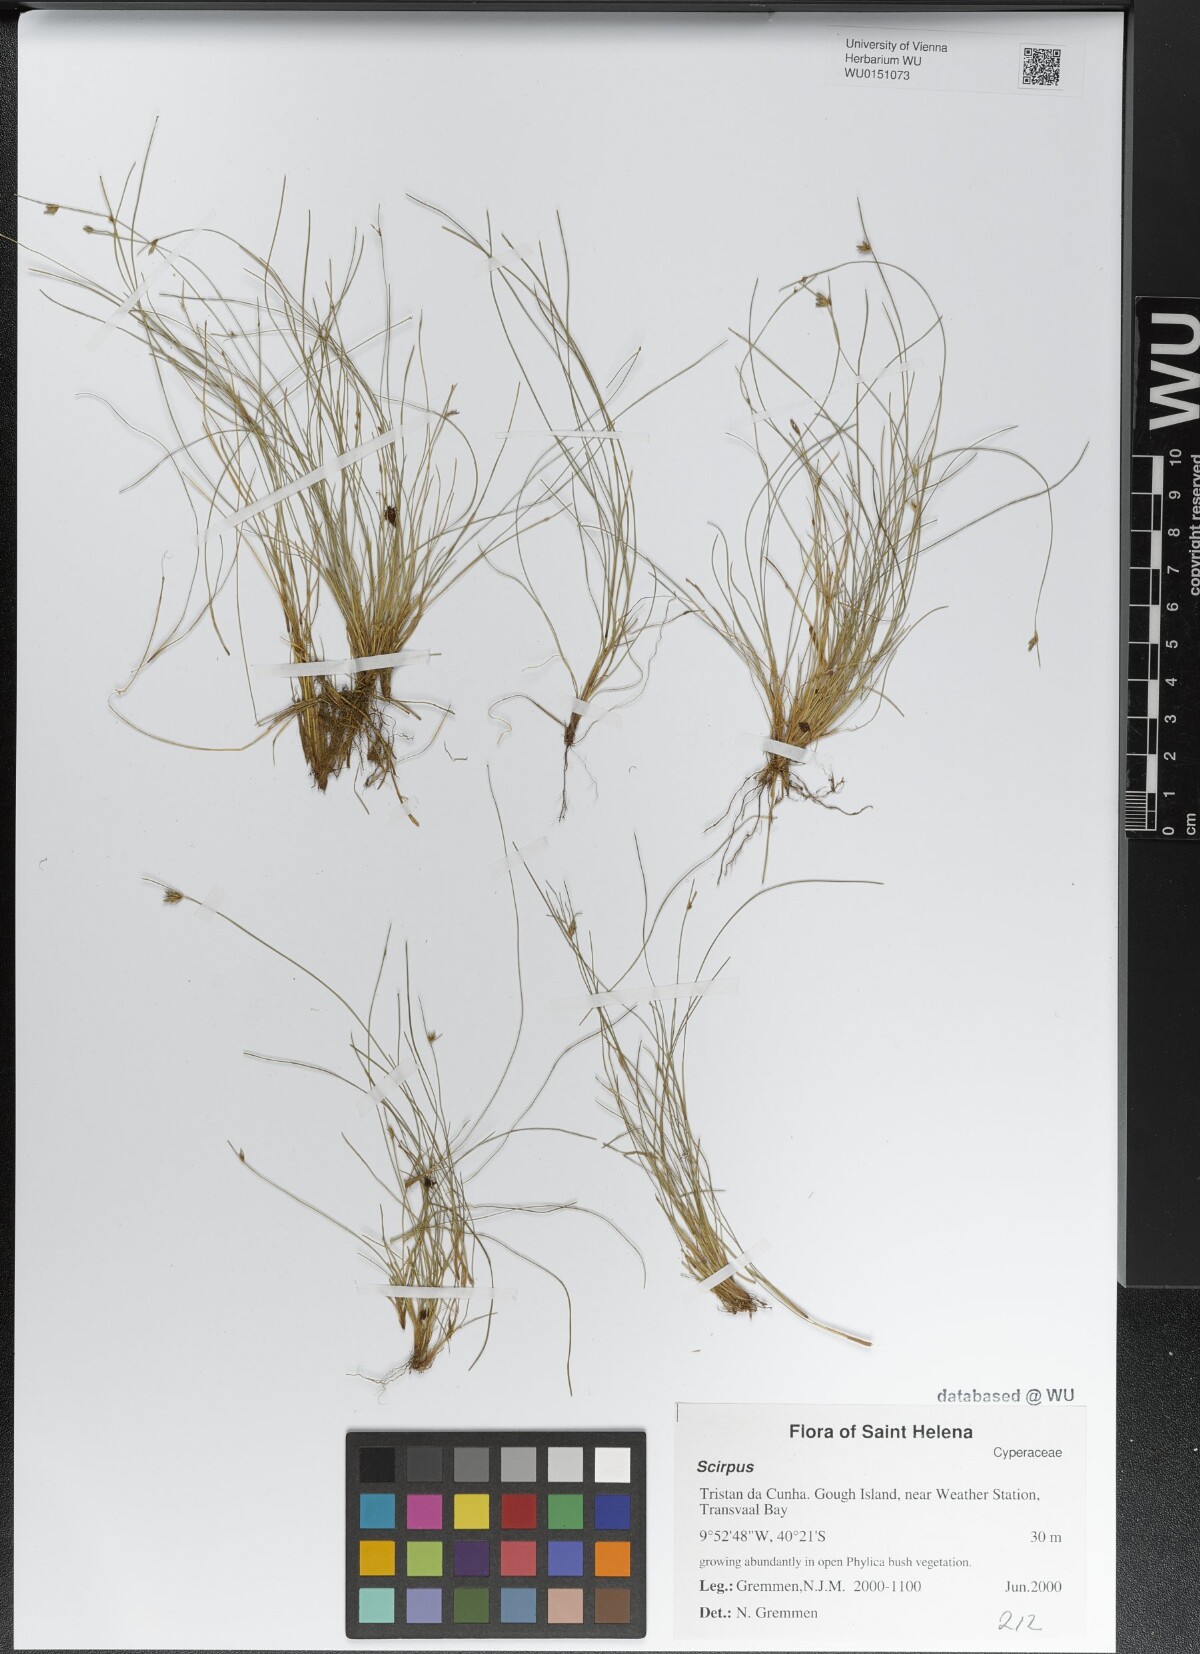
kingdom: Plantae
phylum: Tracheophyta
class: Liliopsida
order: Poales
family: Cyperaceae
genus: Scirpus
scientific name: Scirpus
